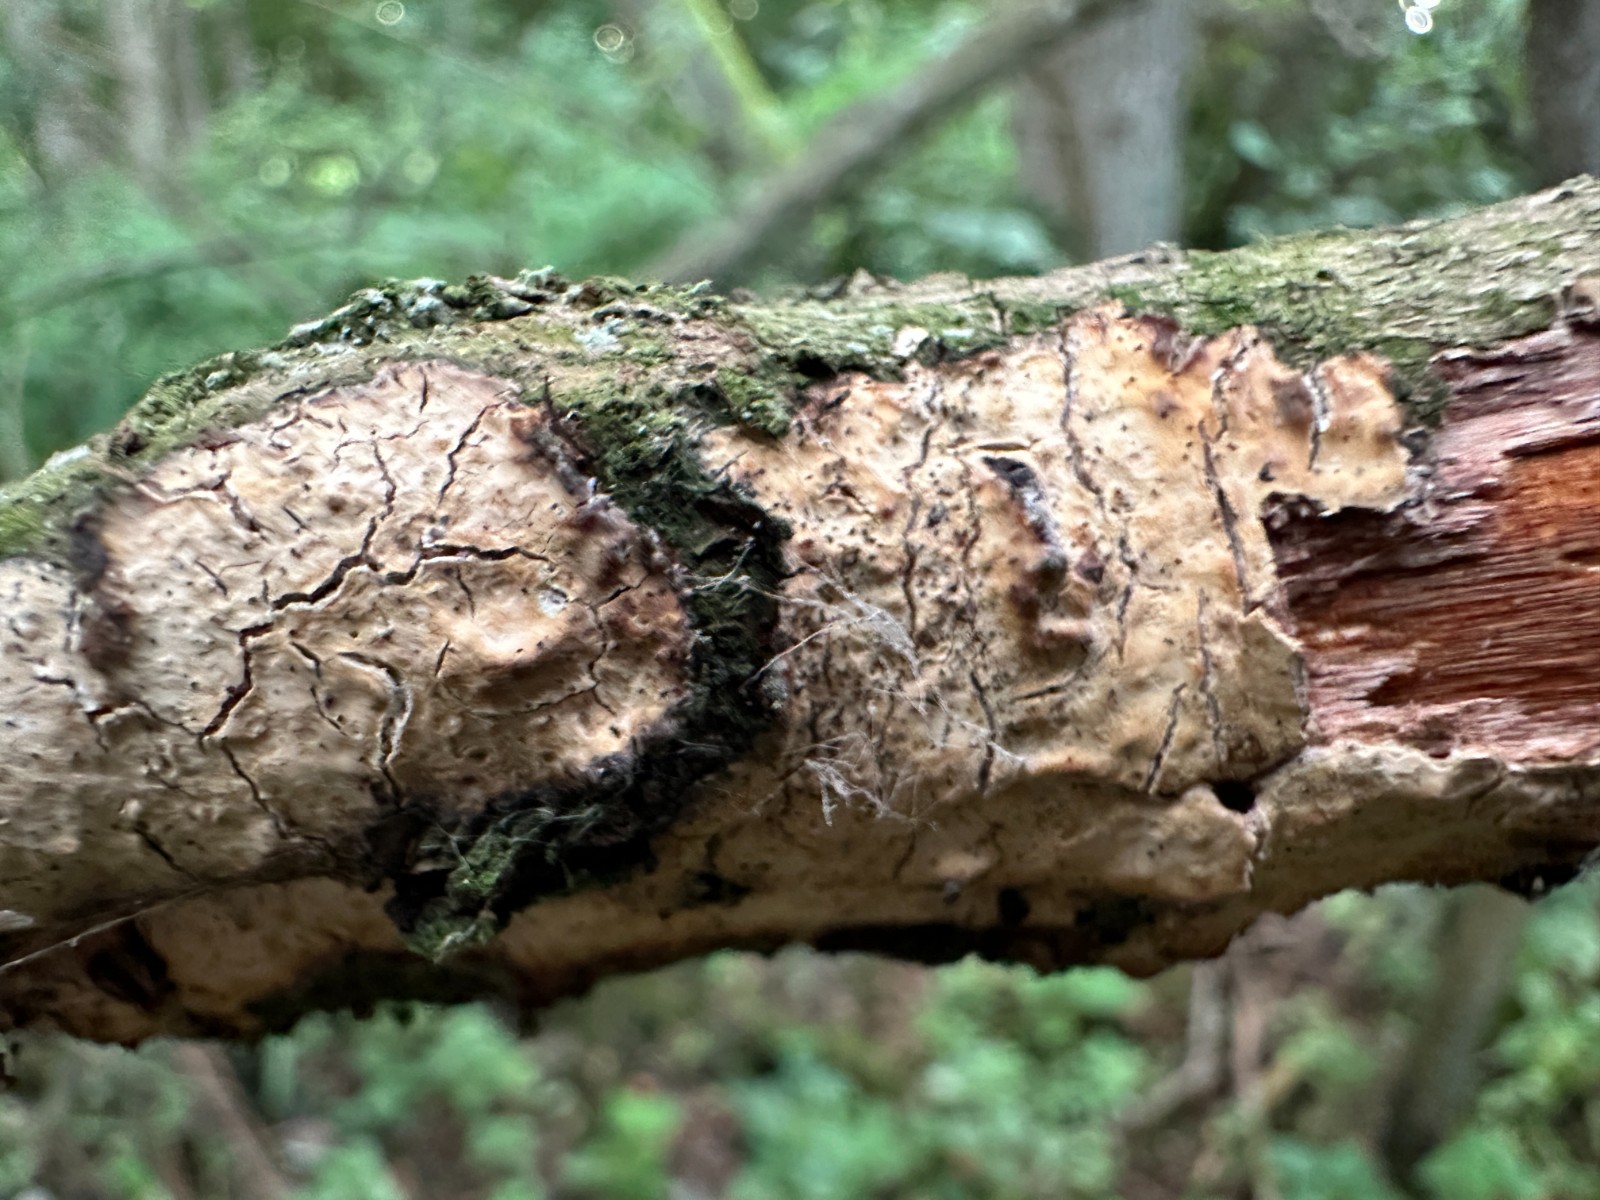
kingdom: Fungi
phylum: Basidiomycota
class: Agaricomycetes
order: Corticiales
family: Corticiaceae
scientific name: Corticiaceae
